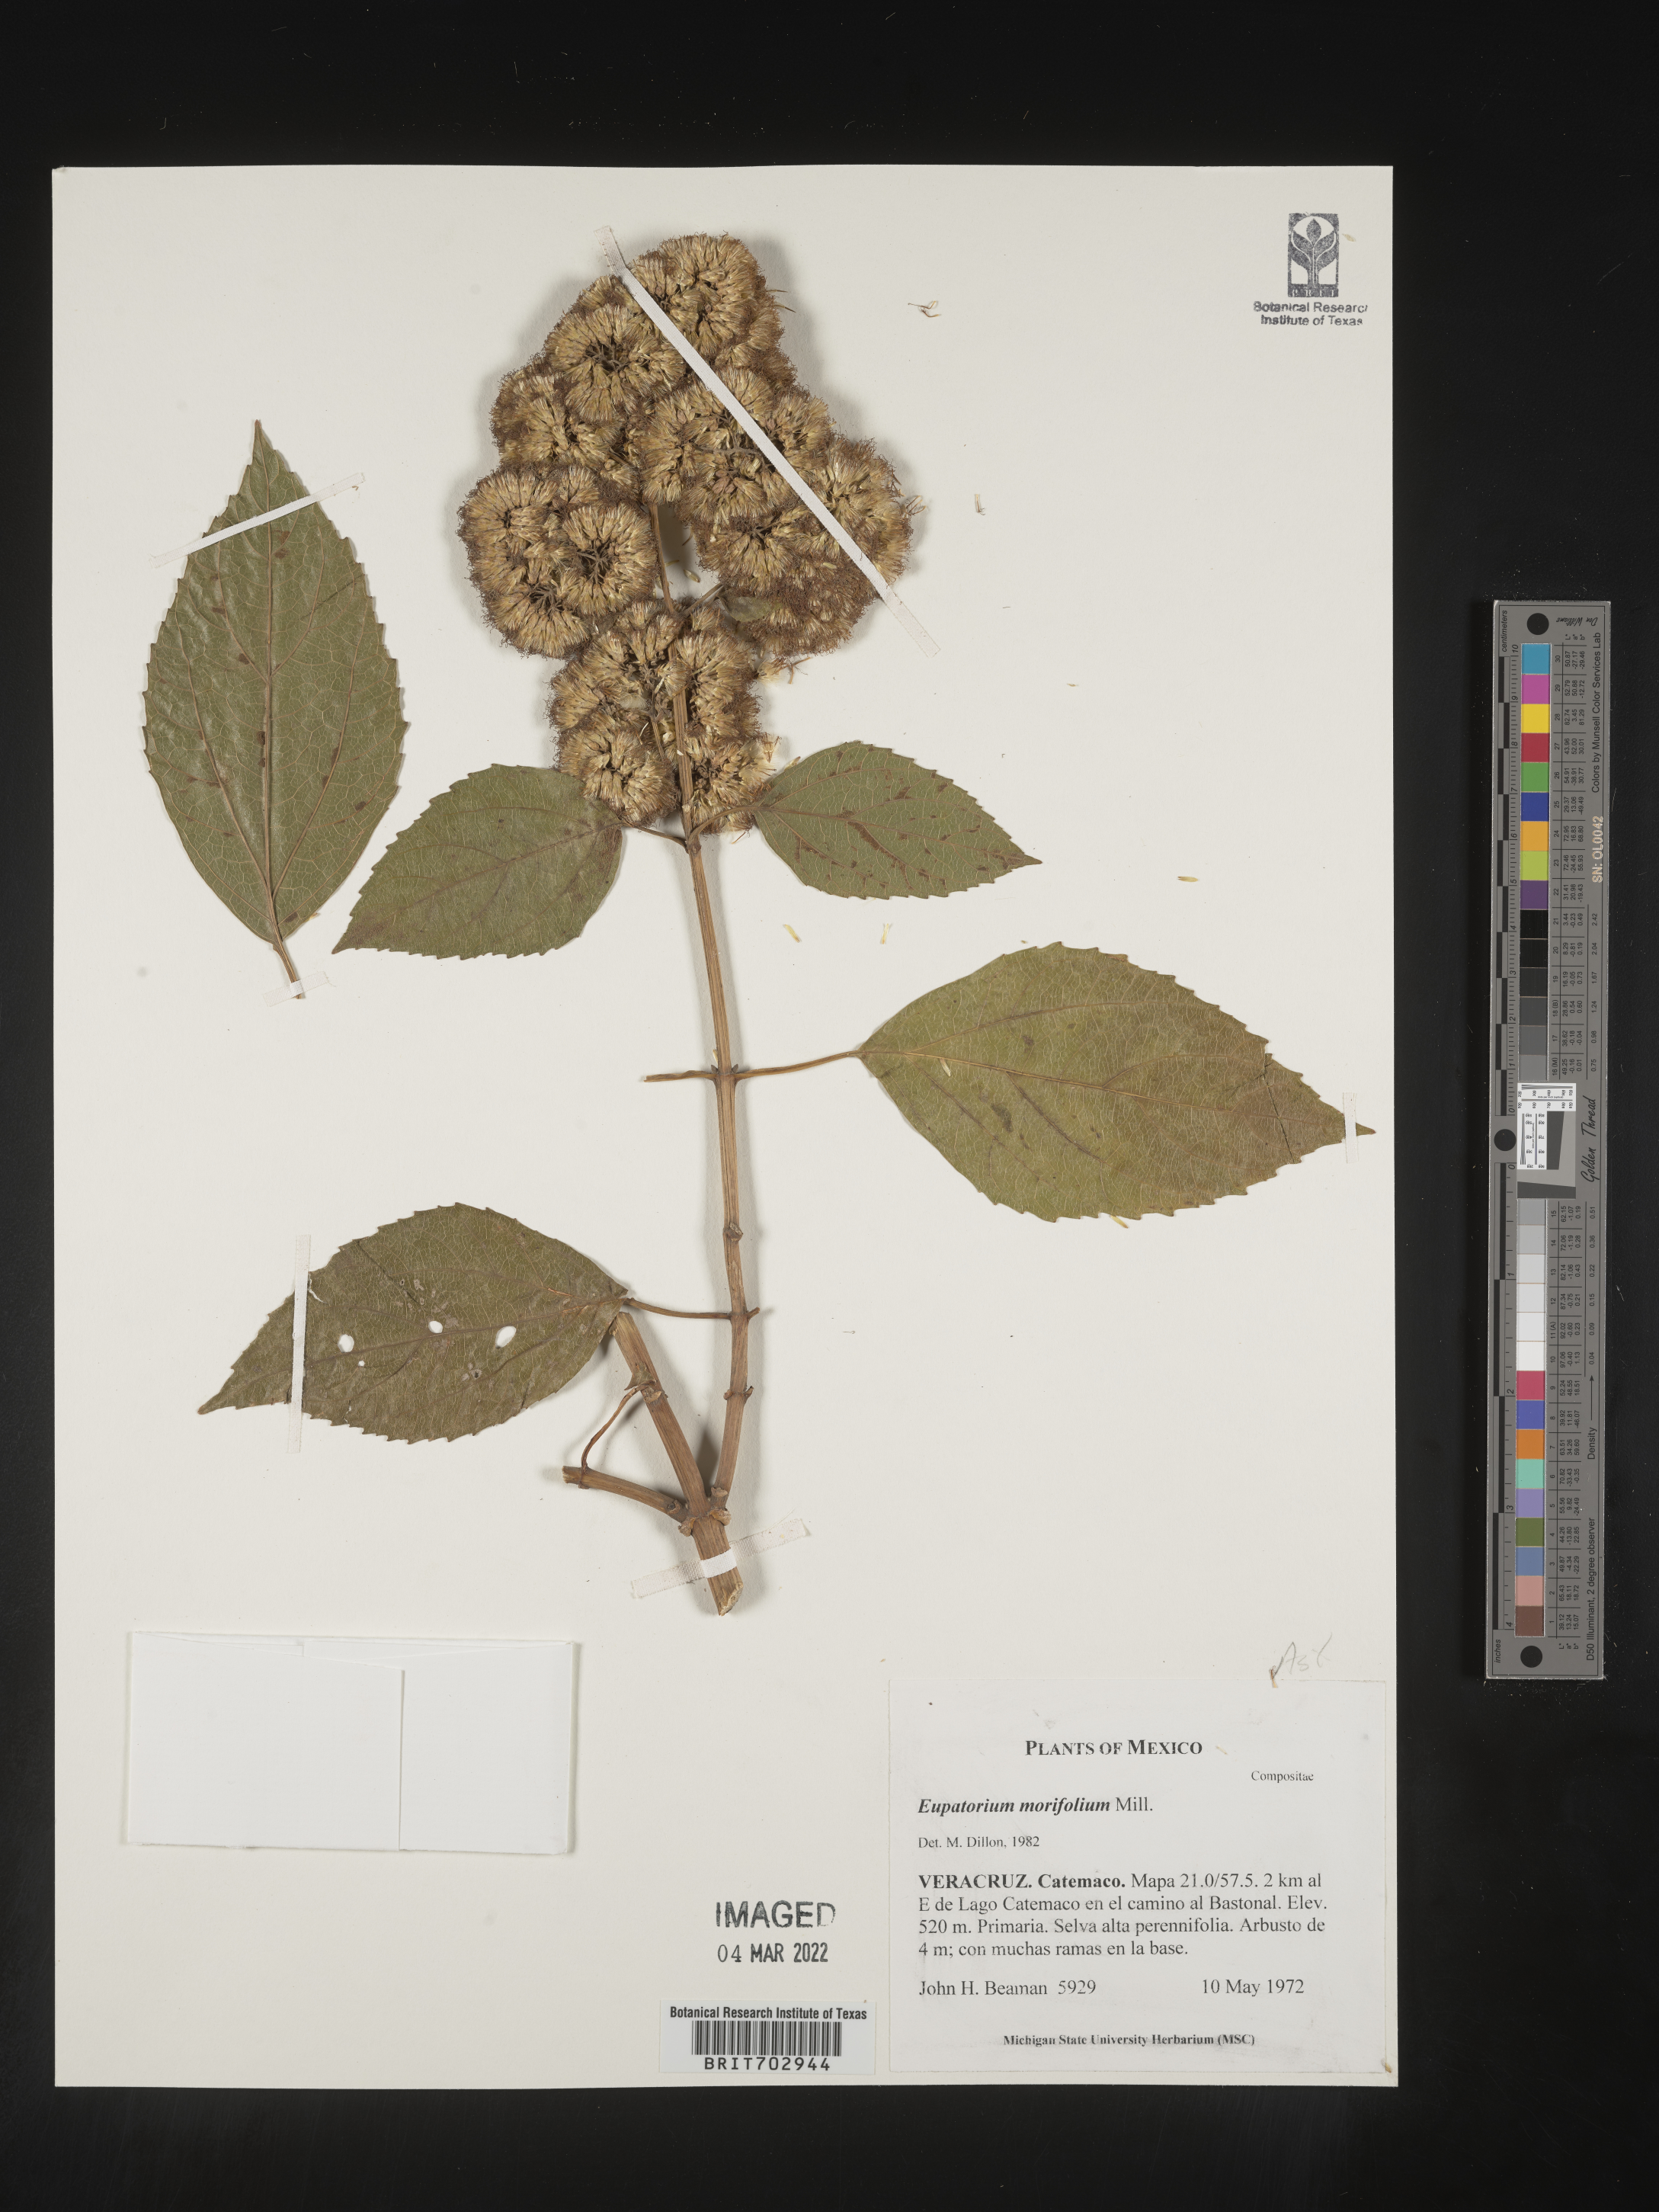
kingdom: Plantae
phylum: Tracheophyta
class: Magnoliopsida
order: Asterales
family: Asteraceae
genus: Eupatorium
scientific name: Eupatorium
